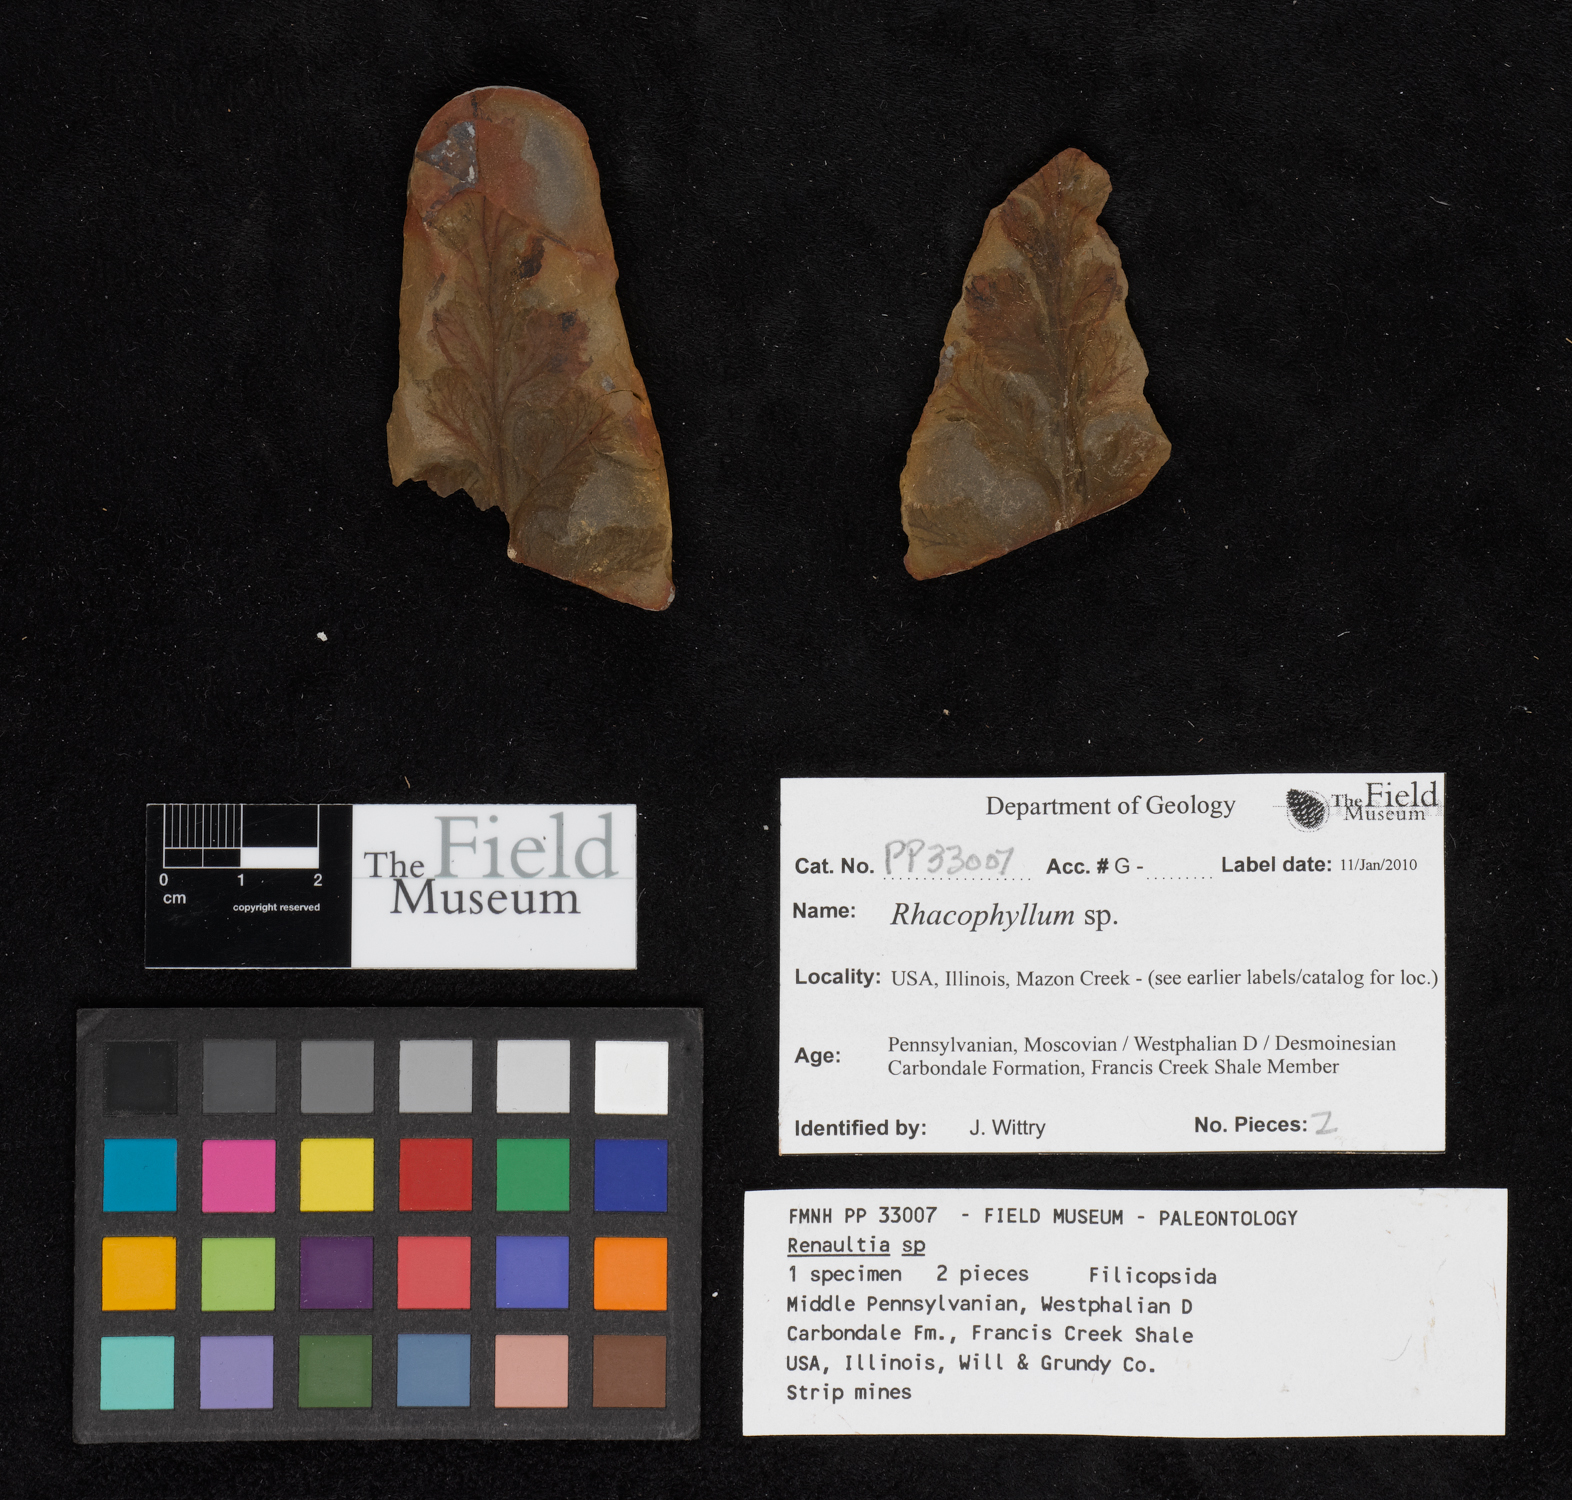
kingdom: Plantae
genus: Rhacophyllum
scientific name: Rhacophyllum
